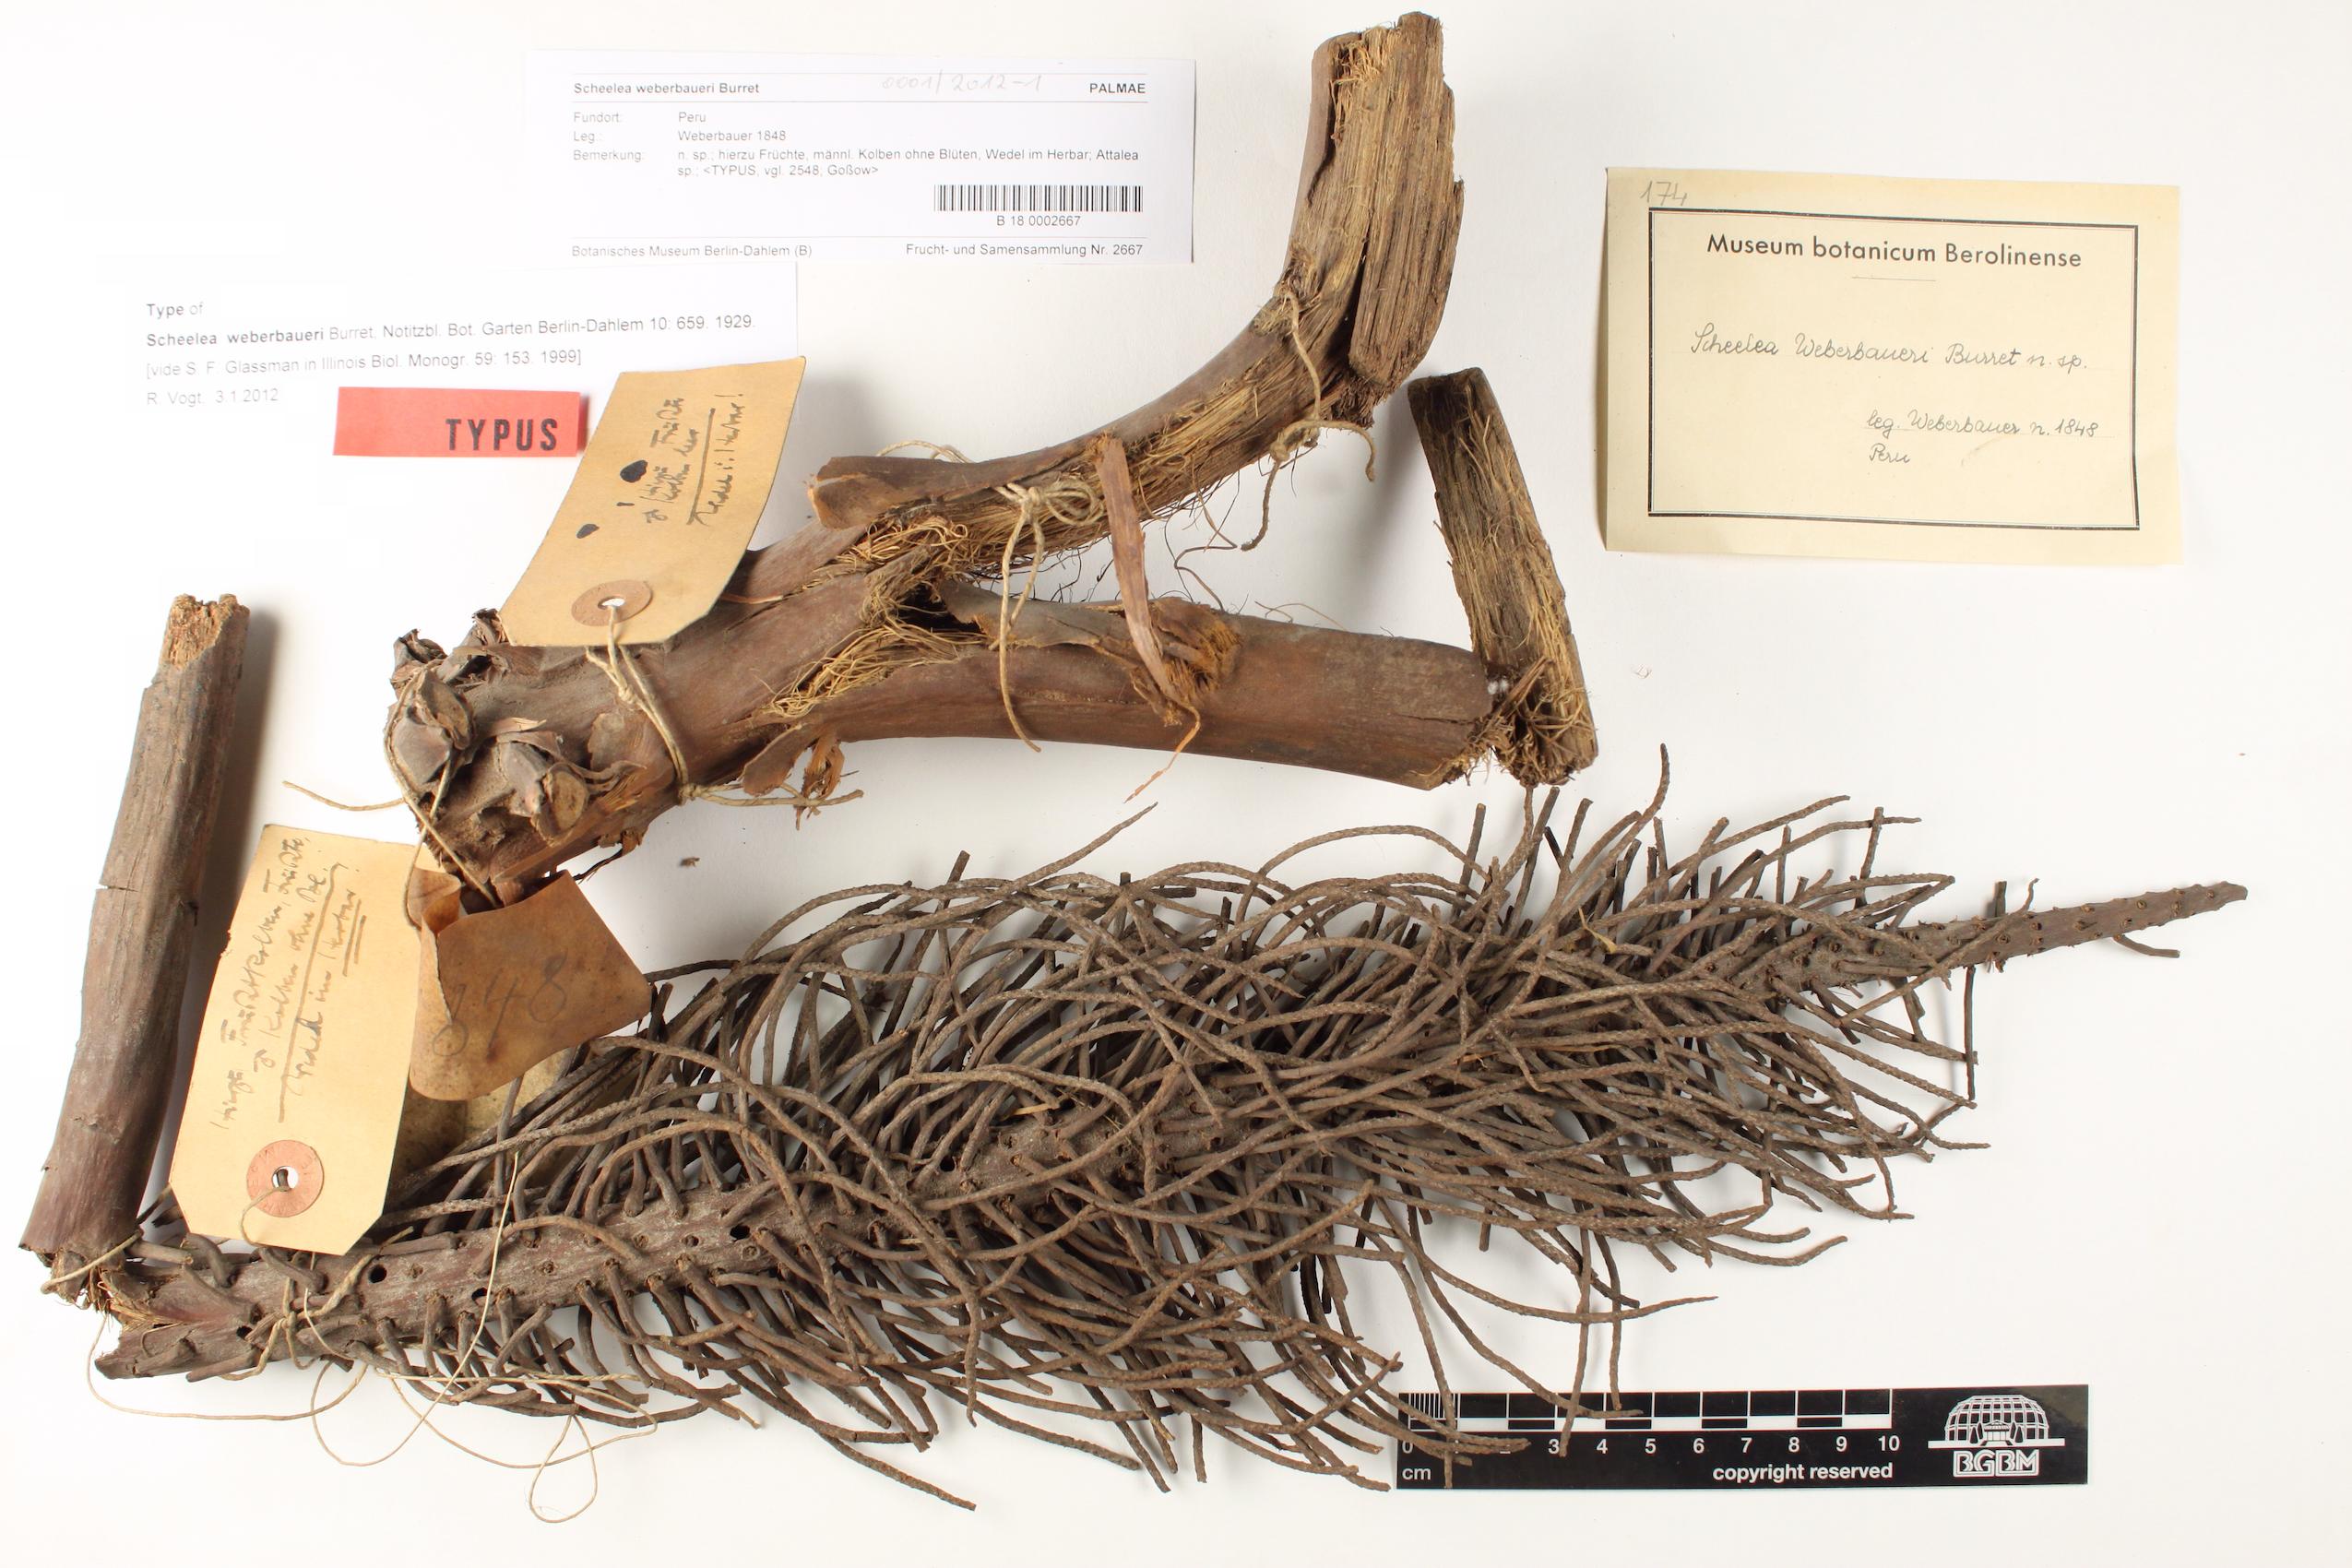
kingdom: Plantae
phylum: Tracheophyta
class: Liliopsida
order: Arecales
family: Arecaceae
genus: Attalea
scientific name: Attalea weberbaueri
